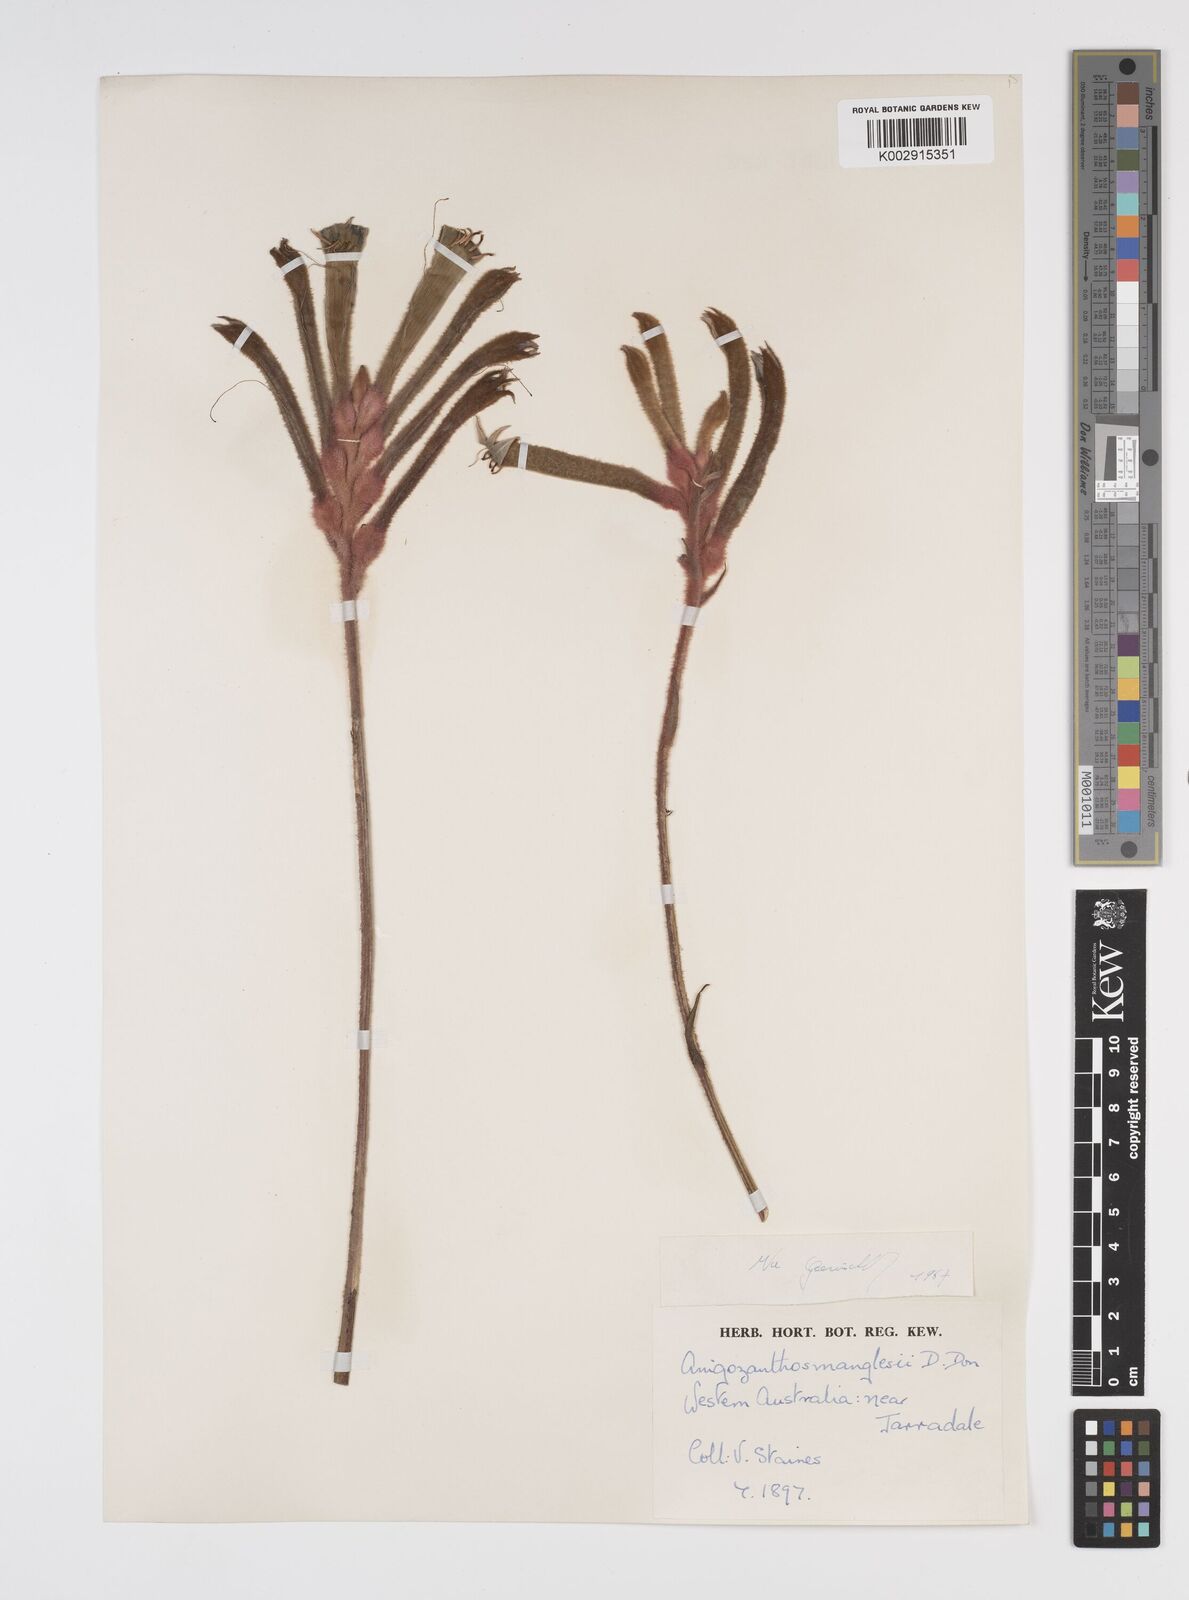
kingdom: Plantae
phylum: Tracheophyta
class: Liliopsida
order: Commelinales
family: Haemodoraceae
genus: Anigozanthos
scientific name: Anigozanthos manglesii
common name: Mangles's kangaroo-paw
